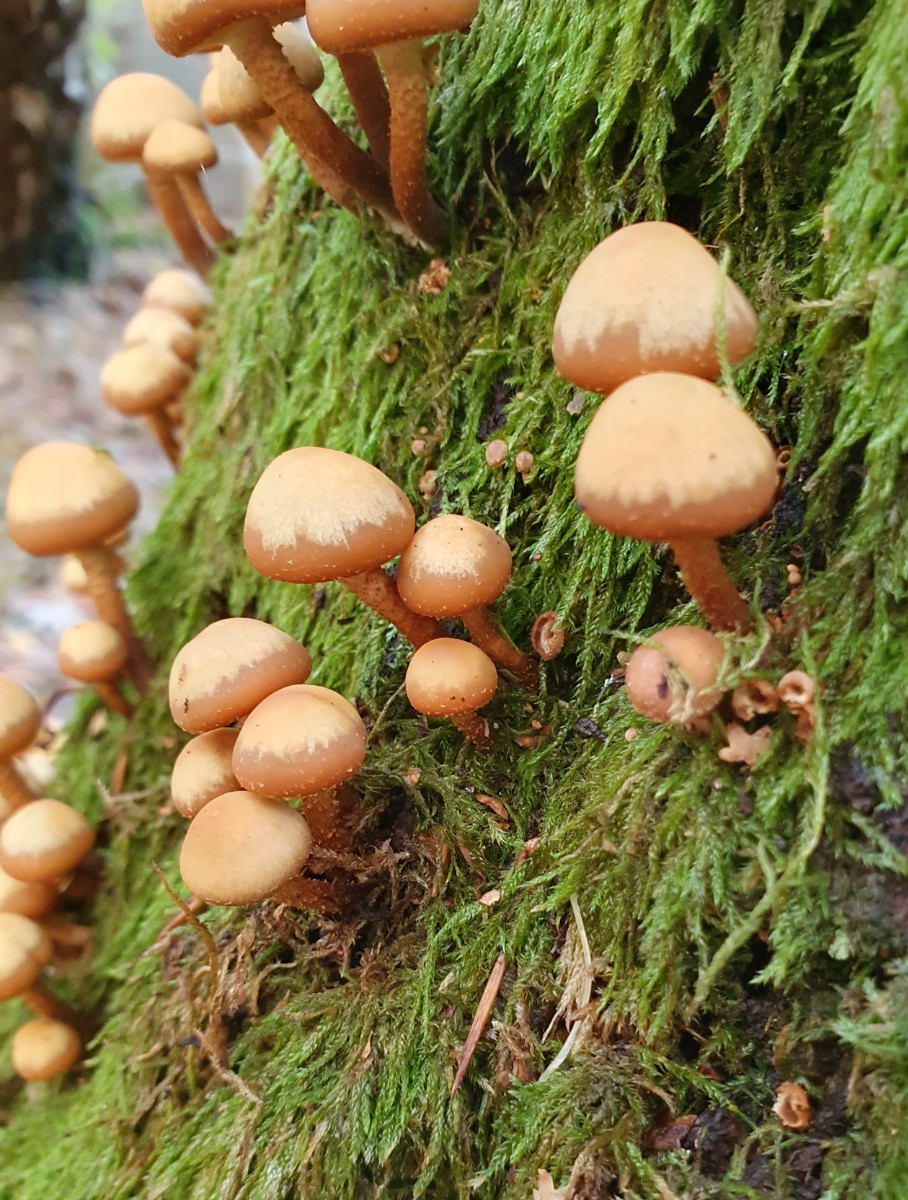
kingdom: Fungi
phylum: Basidiomycota
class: Agaricomycetes
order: Agaricales
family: Strophariaceae
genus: Kuehneromyces
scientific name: Kuehneromyces mutabilis
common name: foranderlig skælhat
